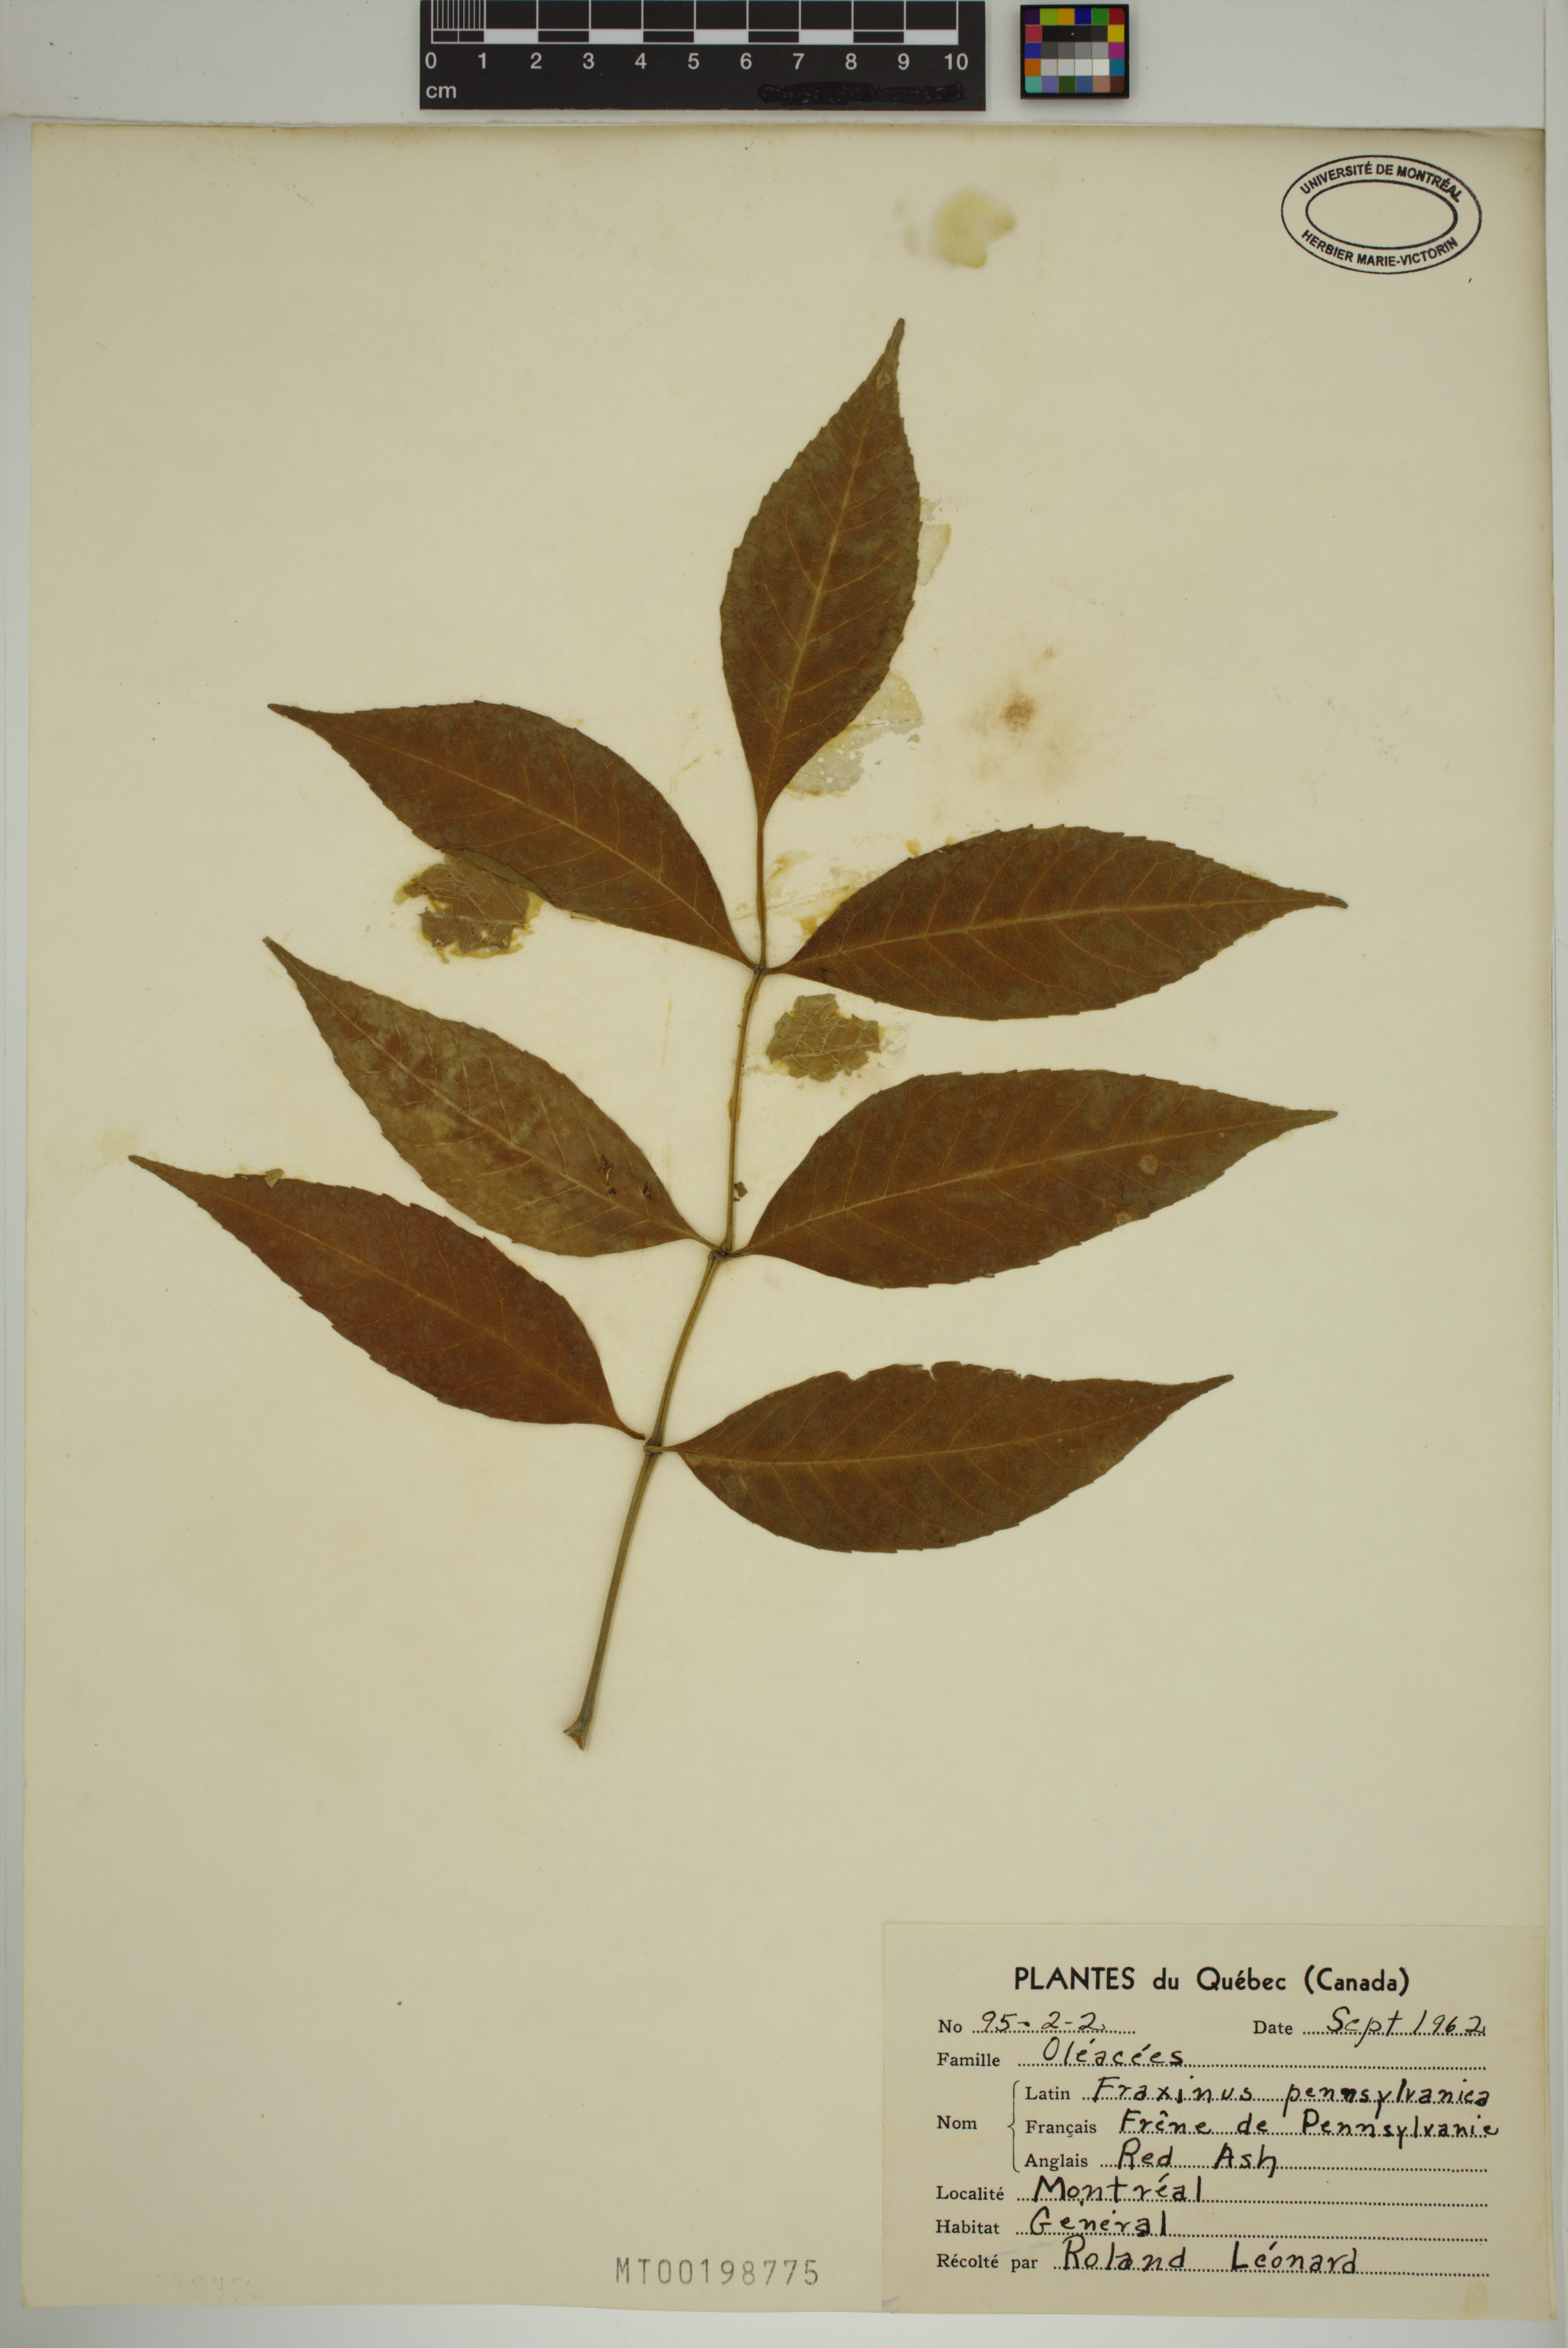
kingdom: Plantae
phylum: Tracheophyta
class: Magnoliopsida
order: Lamiales
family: Oleaceae
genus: Fraxinus
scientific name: Fraxinus pennsylvanica
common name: Green ash
